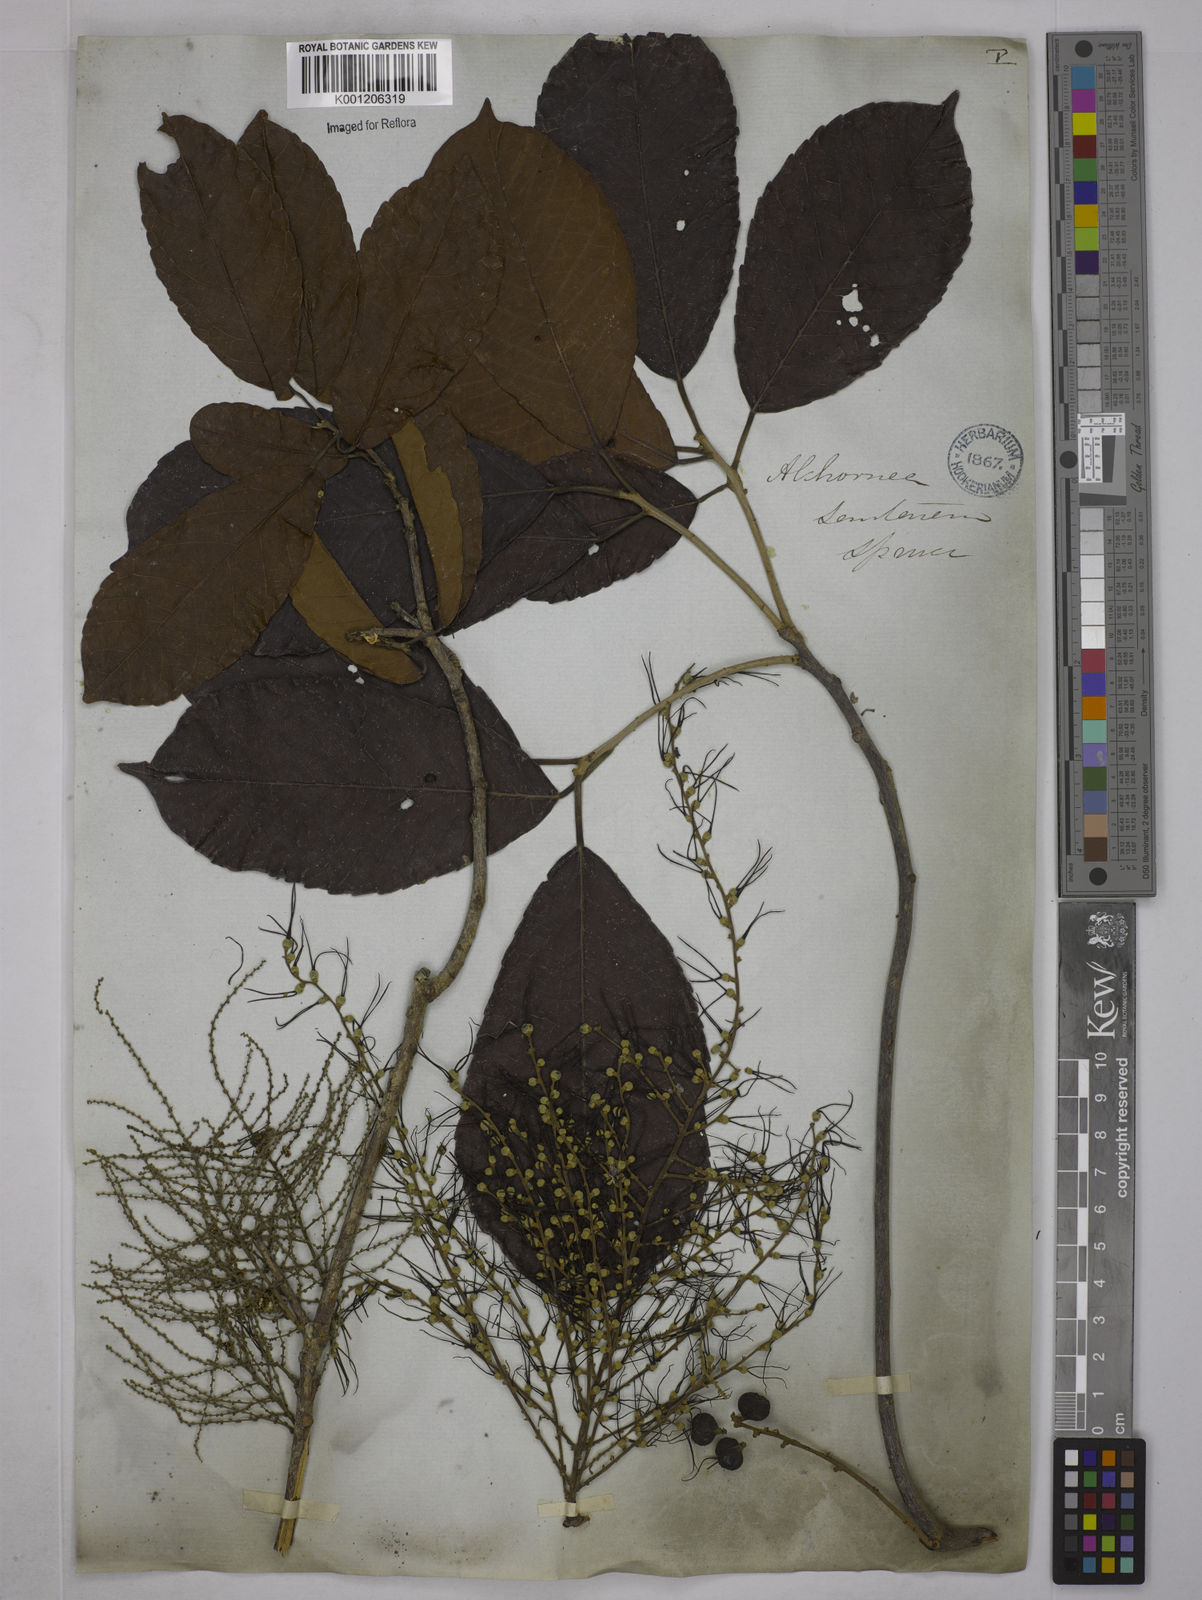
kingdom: Plantae
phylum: Tracheophyta
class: Magnoliopsida
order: Malpighiales
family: Euphorbiaceae
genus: Alchornea
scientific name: Alchornea discolor
